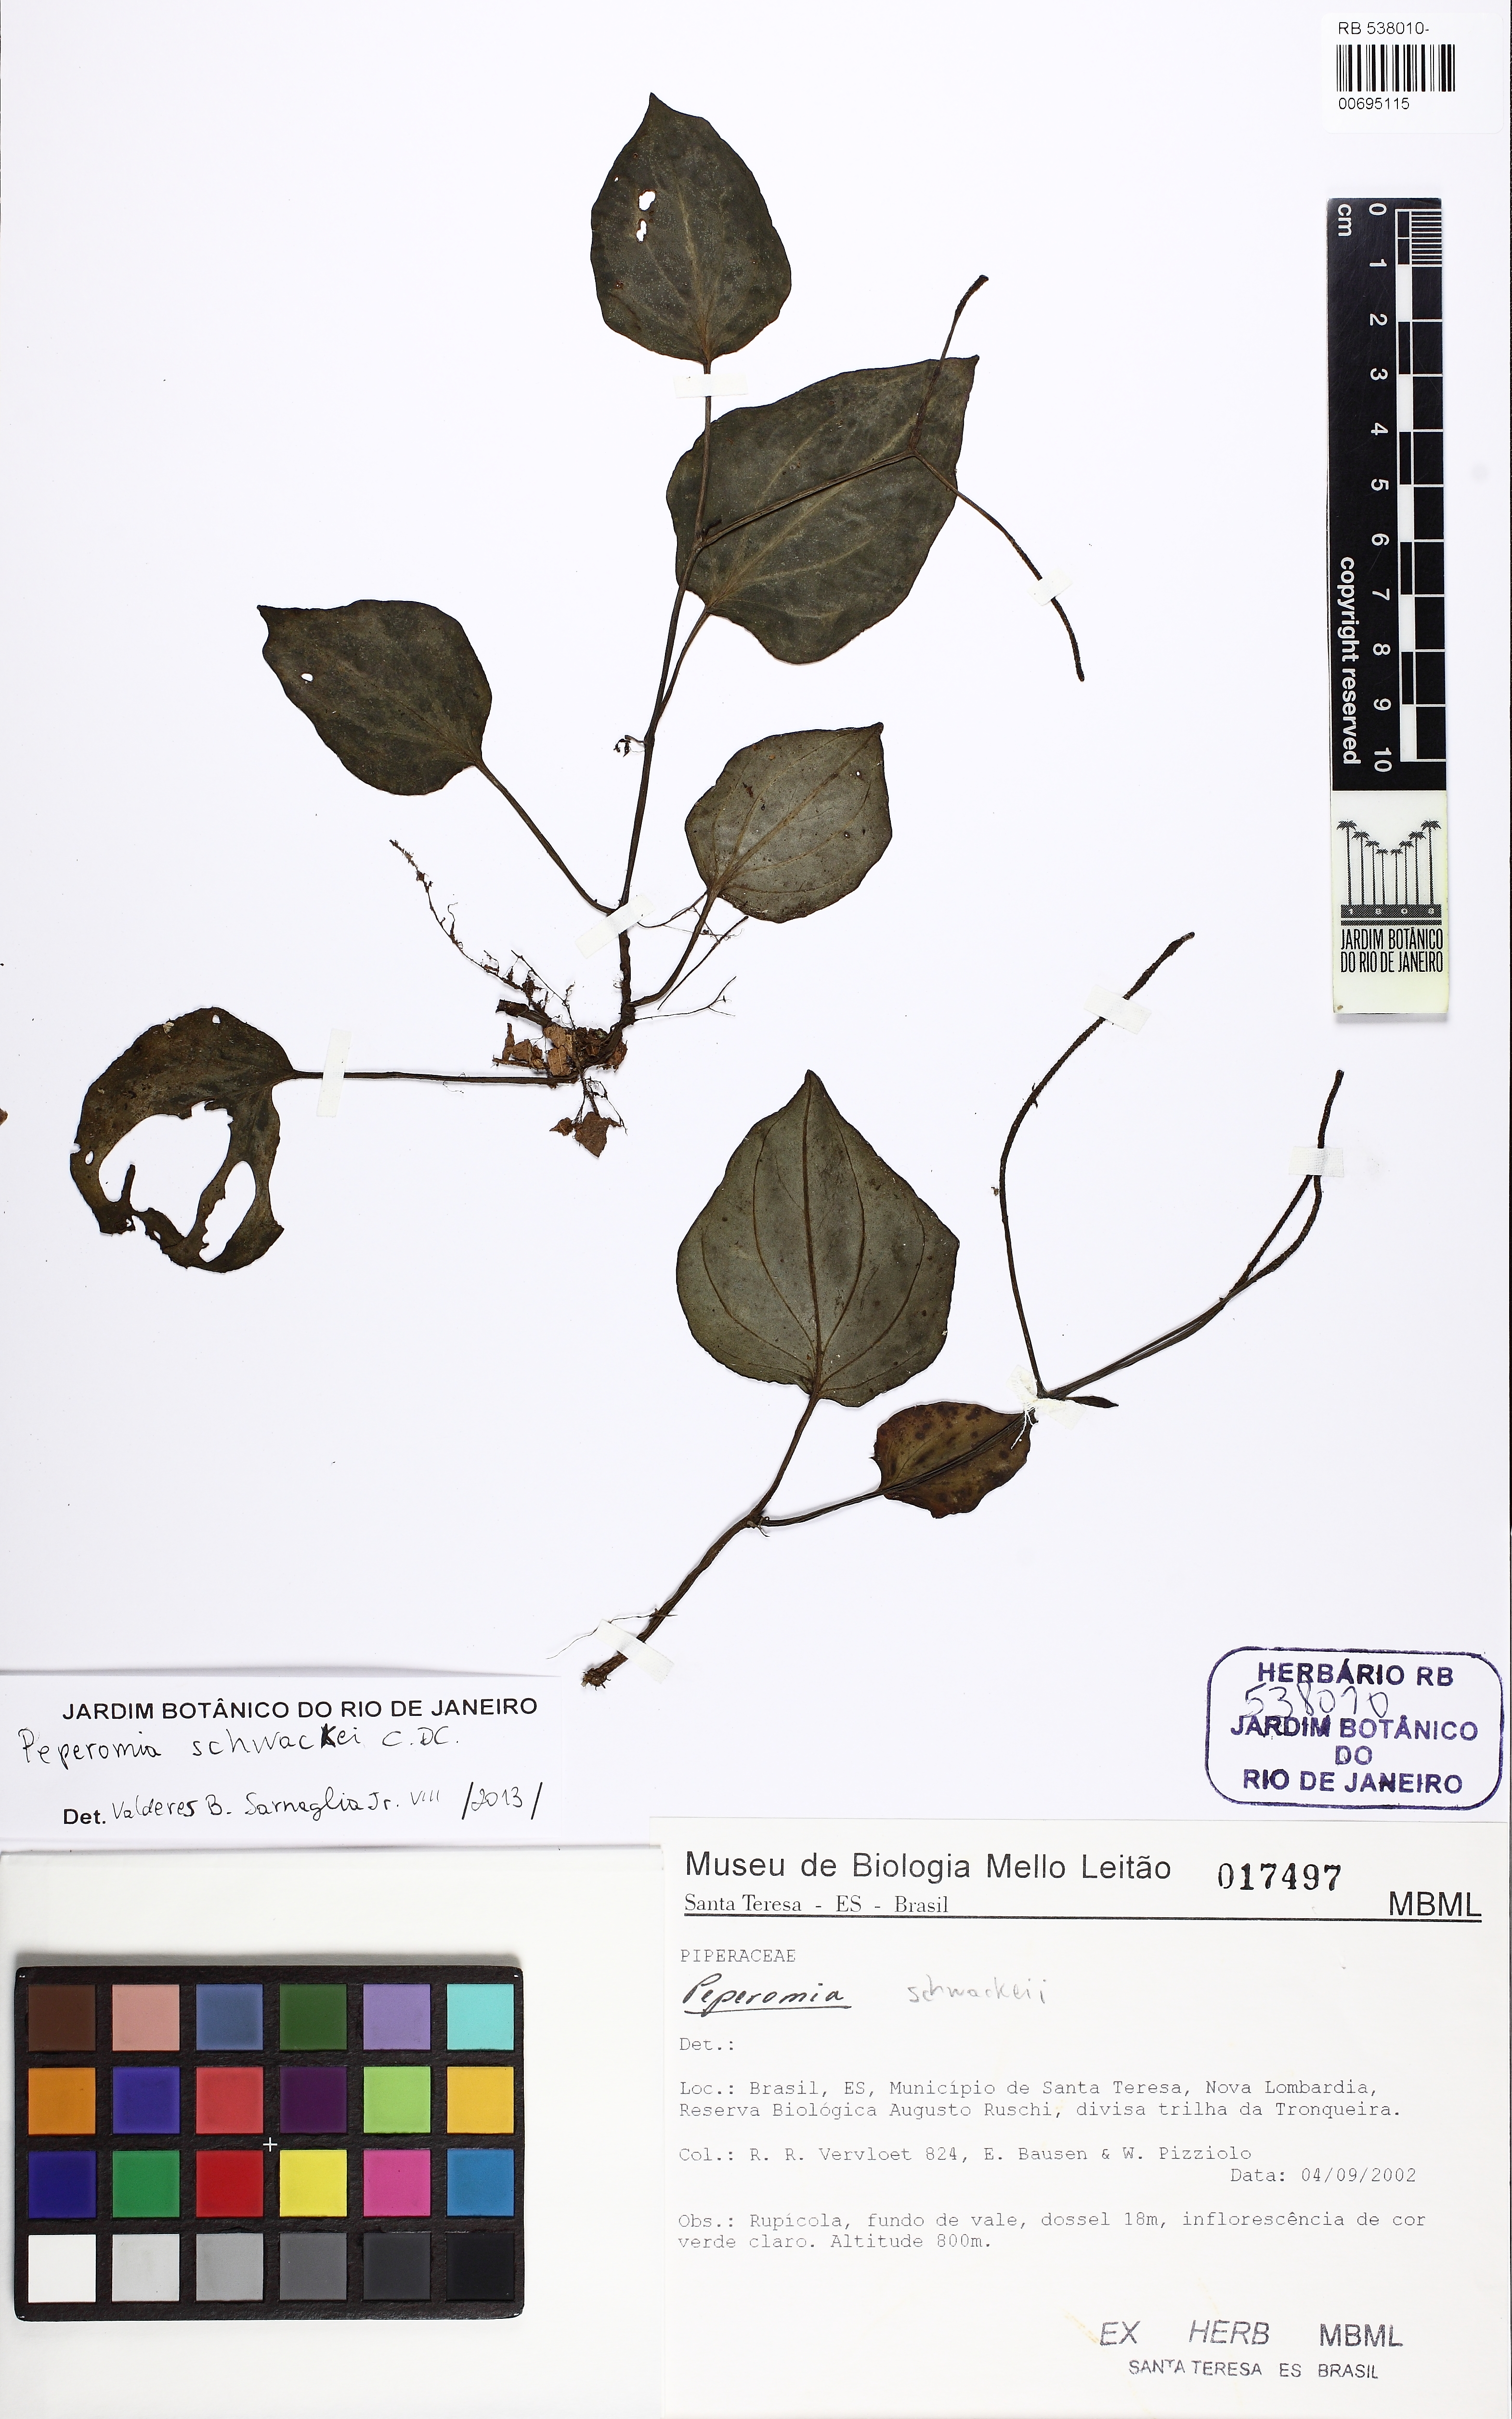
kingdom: Plantae
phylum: Tracheophyta
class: Magnoliopsida
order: Piperales
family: Piperaceae
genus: Peperomia
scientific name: Peperomia schwackei
